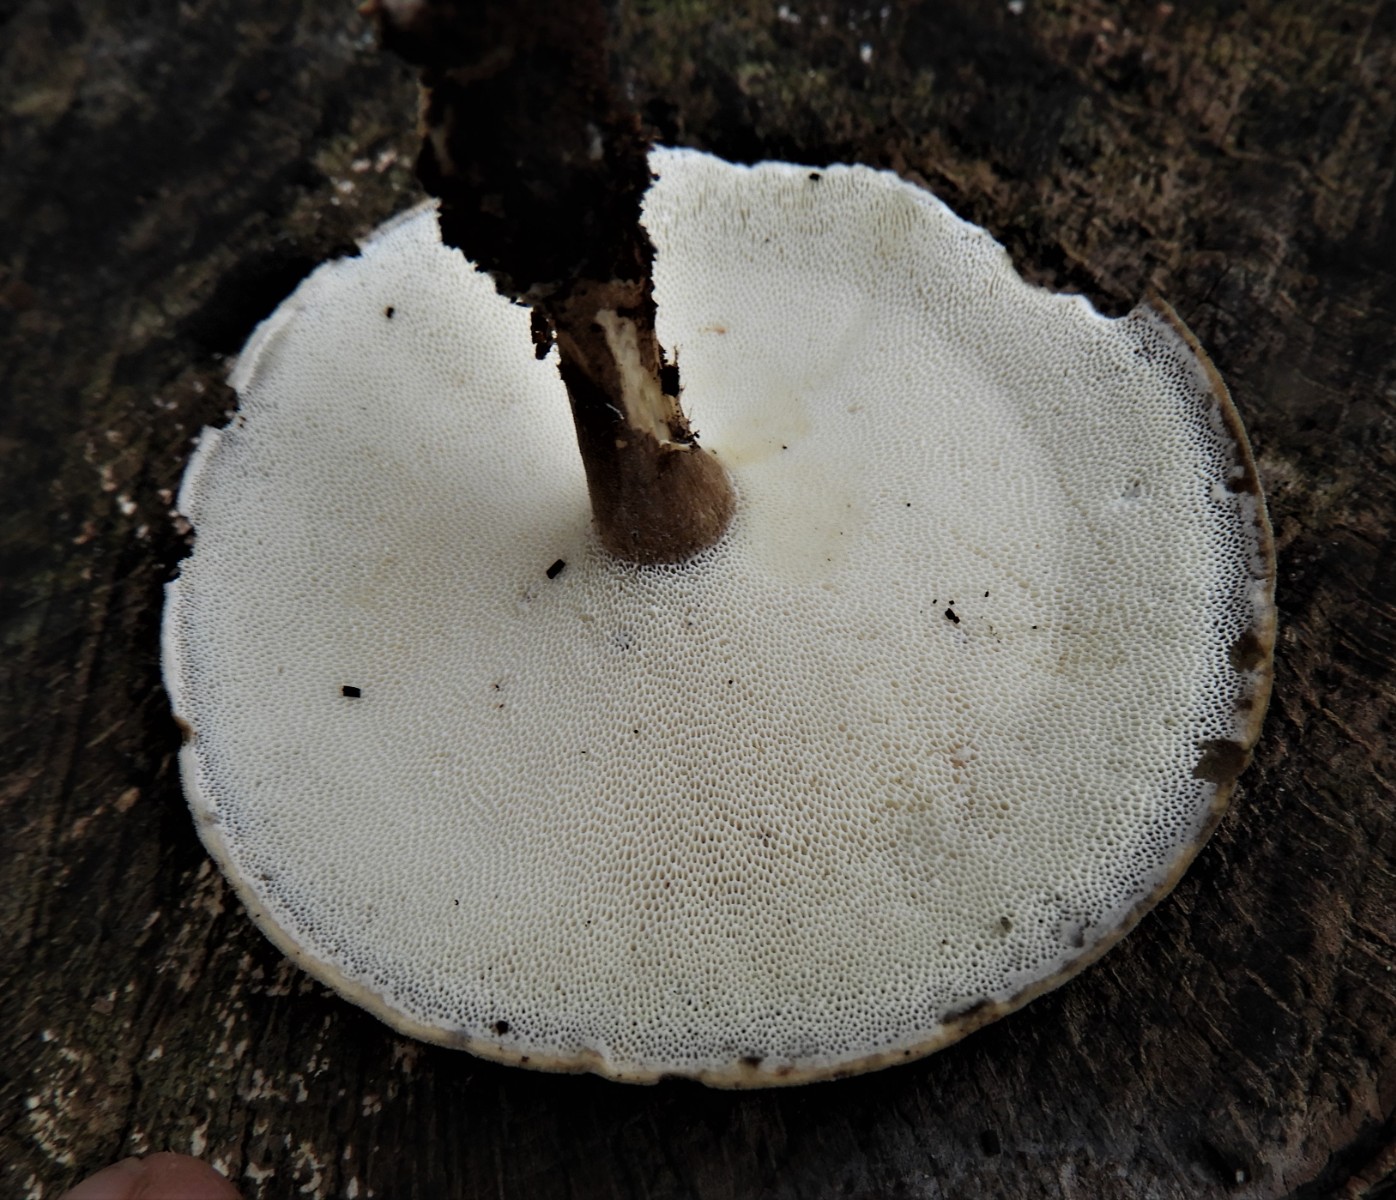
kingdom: Fungi
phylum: Basidiomycota
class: Agaricomycetes
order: Polyporales
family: Polyporaceae
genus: Lentinus
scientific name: Lentinus brumalis
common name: vinter-stilkporesvamp
